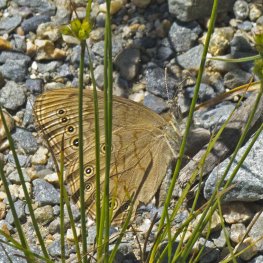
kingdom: Animalia
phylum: Arthropoda
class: Insecta
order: Lepidoptera
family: Nymphalidae
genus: Lethe
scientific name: Lethe eurydice
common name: Eyed Brown
